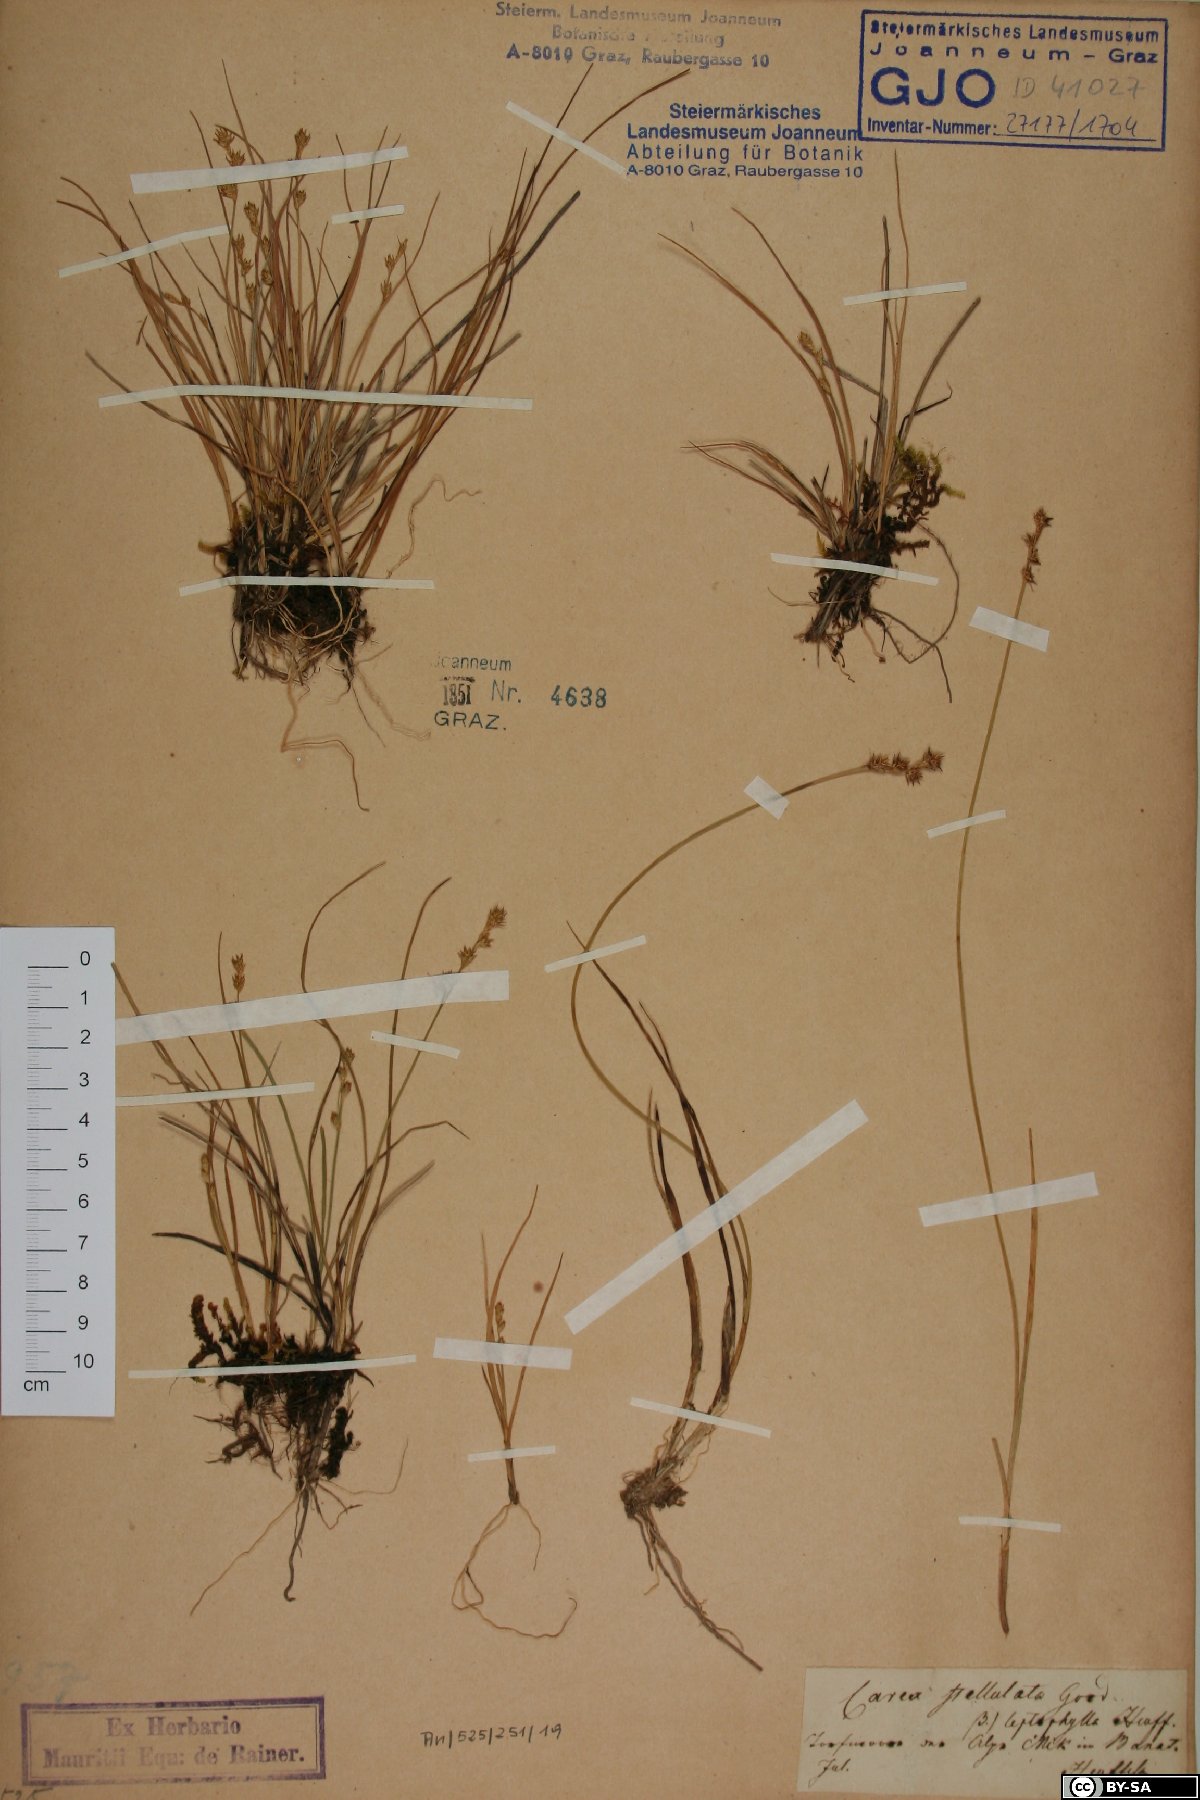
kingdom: Plantae
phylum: Tracheophyta
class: Liliopsida
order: Poales
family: Cyperaceae
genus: Carex
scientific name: Carex echinata
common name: Star sedge
